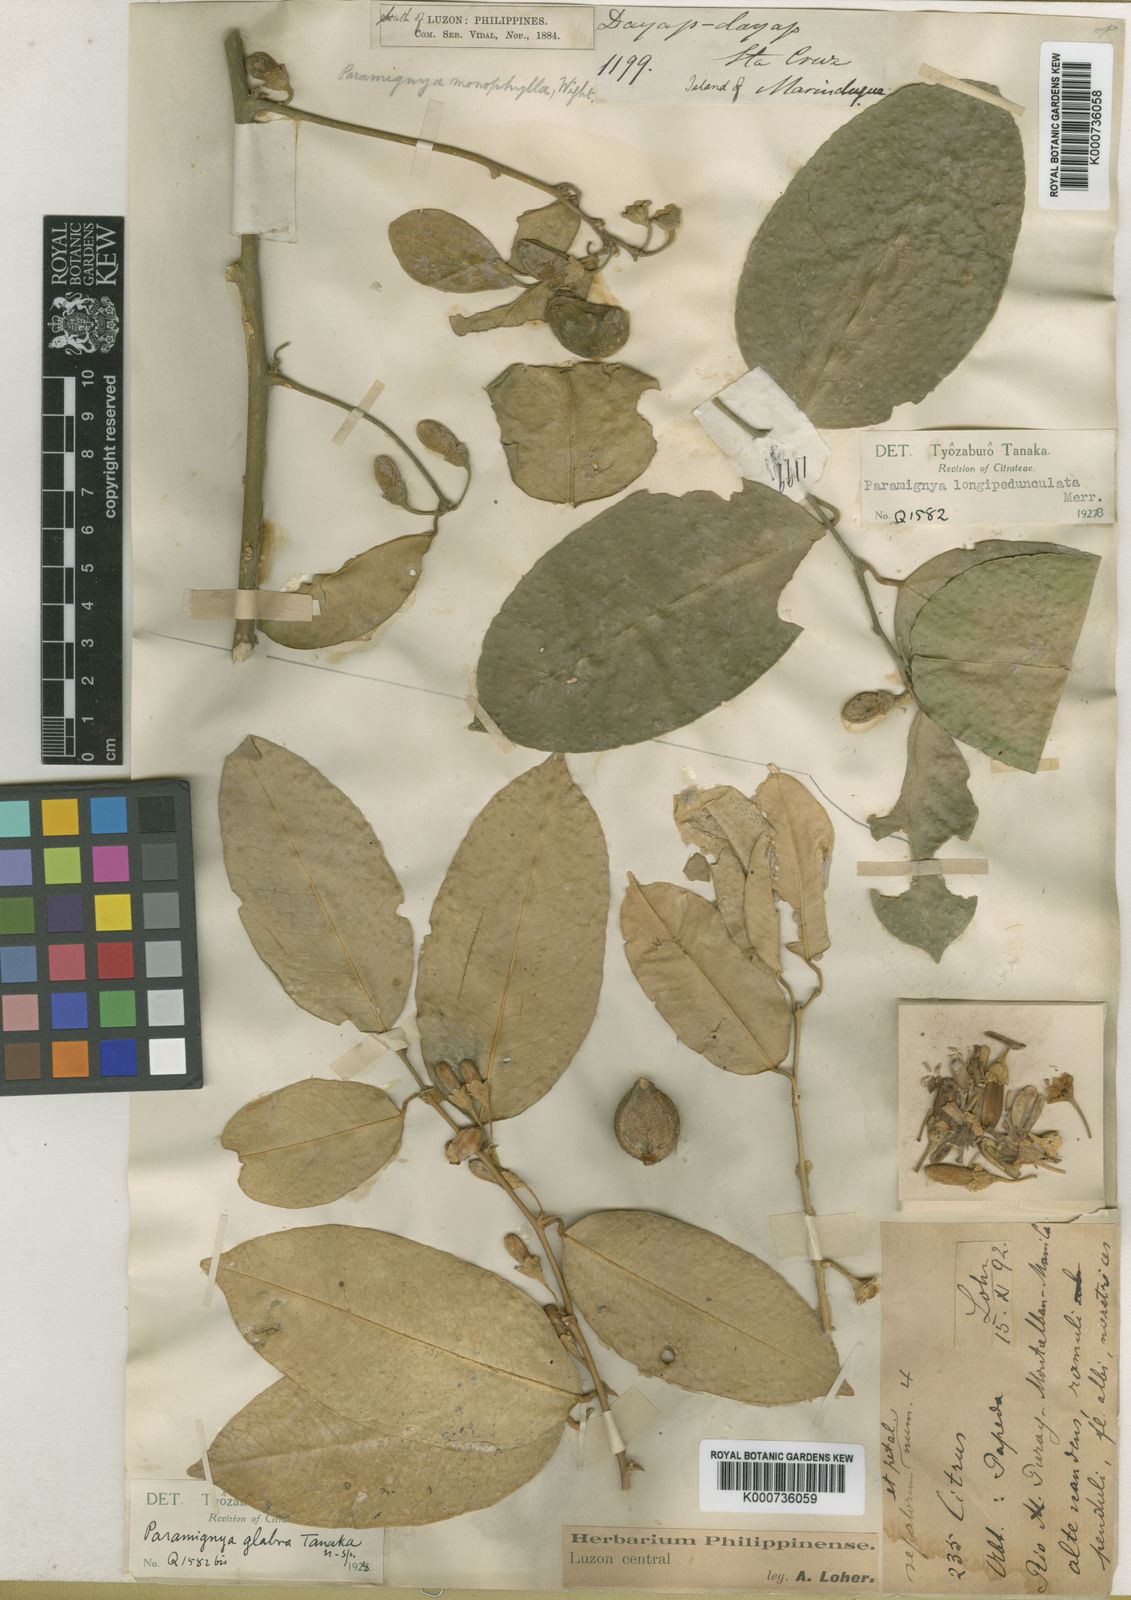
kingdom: Plantae
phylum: Tracheophyta
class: Magnoliopsida
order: Sapindales
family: Rutaceae
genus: Paramignya
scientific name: Paramignya grandiflora
